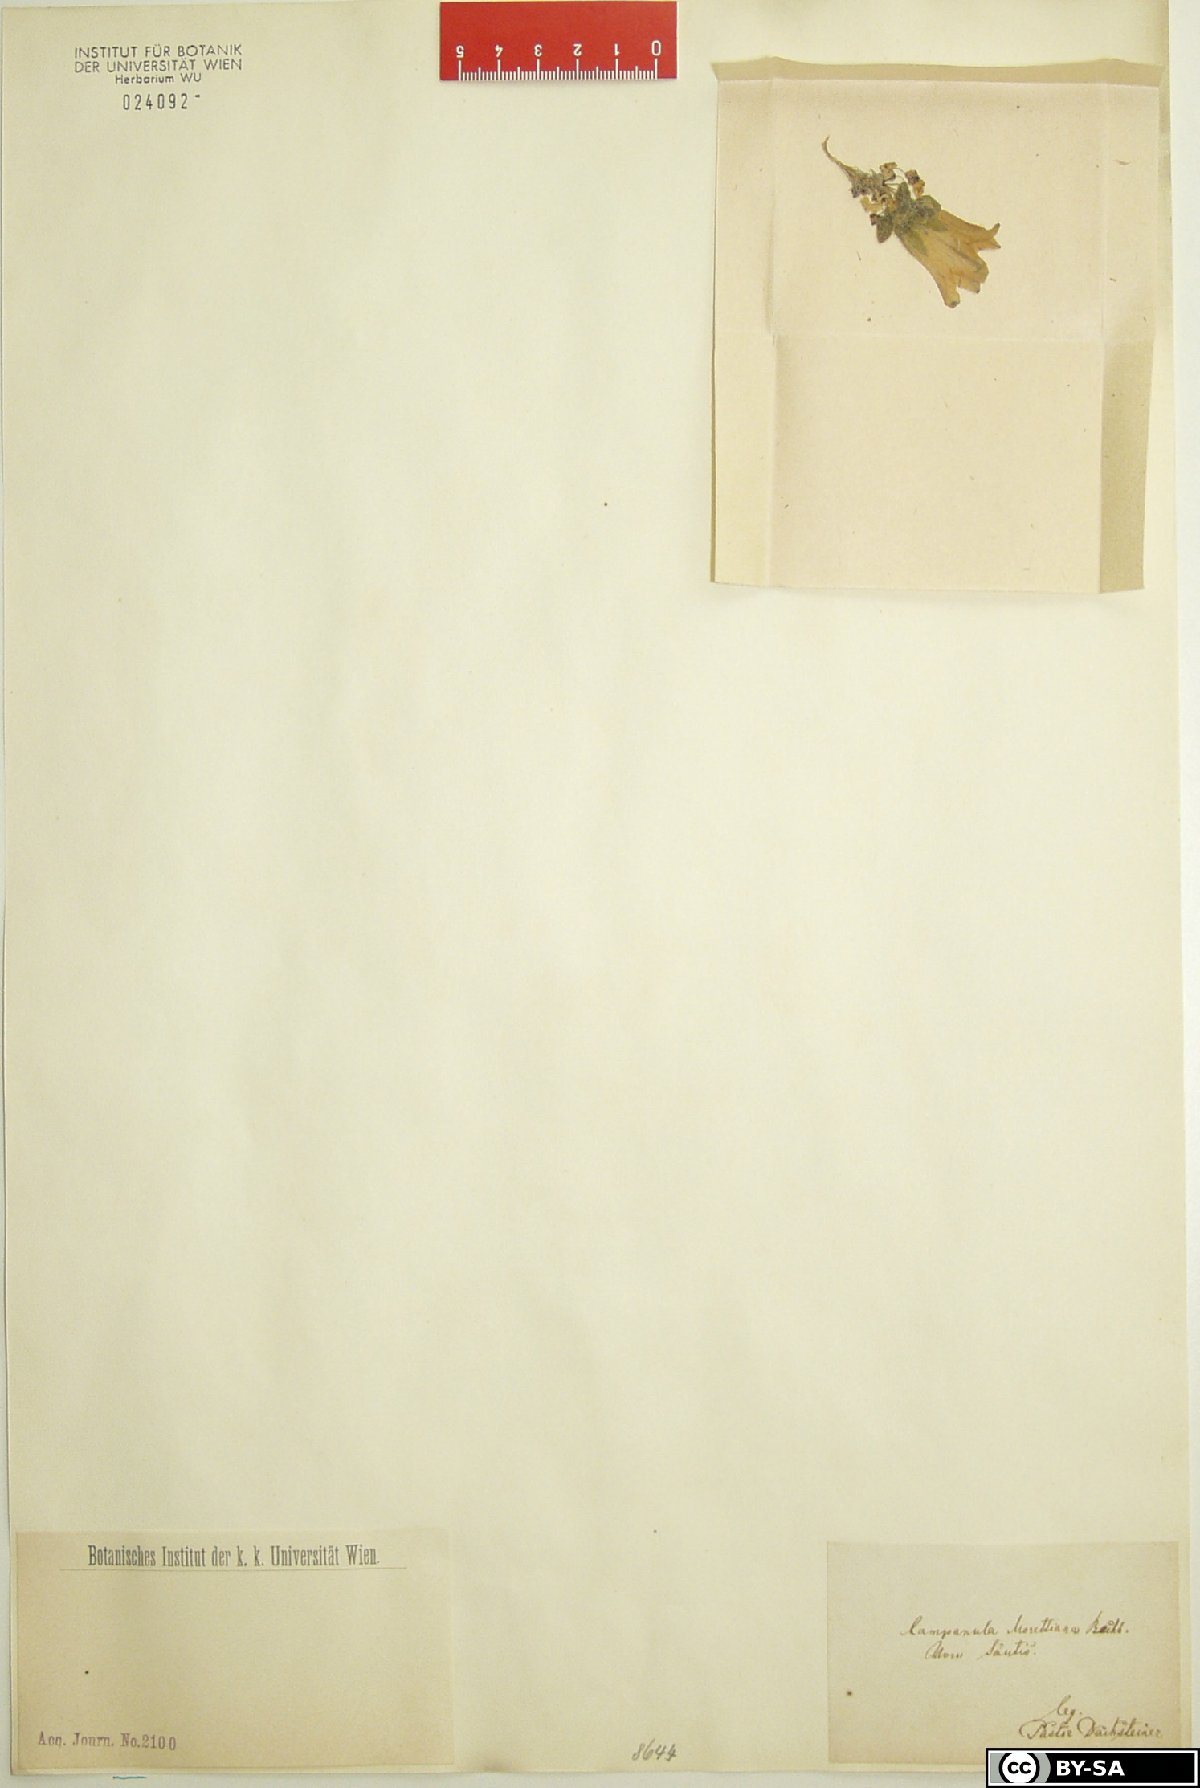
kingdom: Plantae
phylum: Tracheophyta
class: Magnoliopsida
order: Asterales
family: Campanulaceae
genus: Campanula
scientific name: Campanula morettiana
